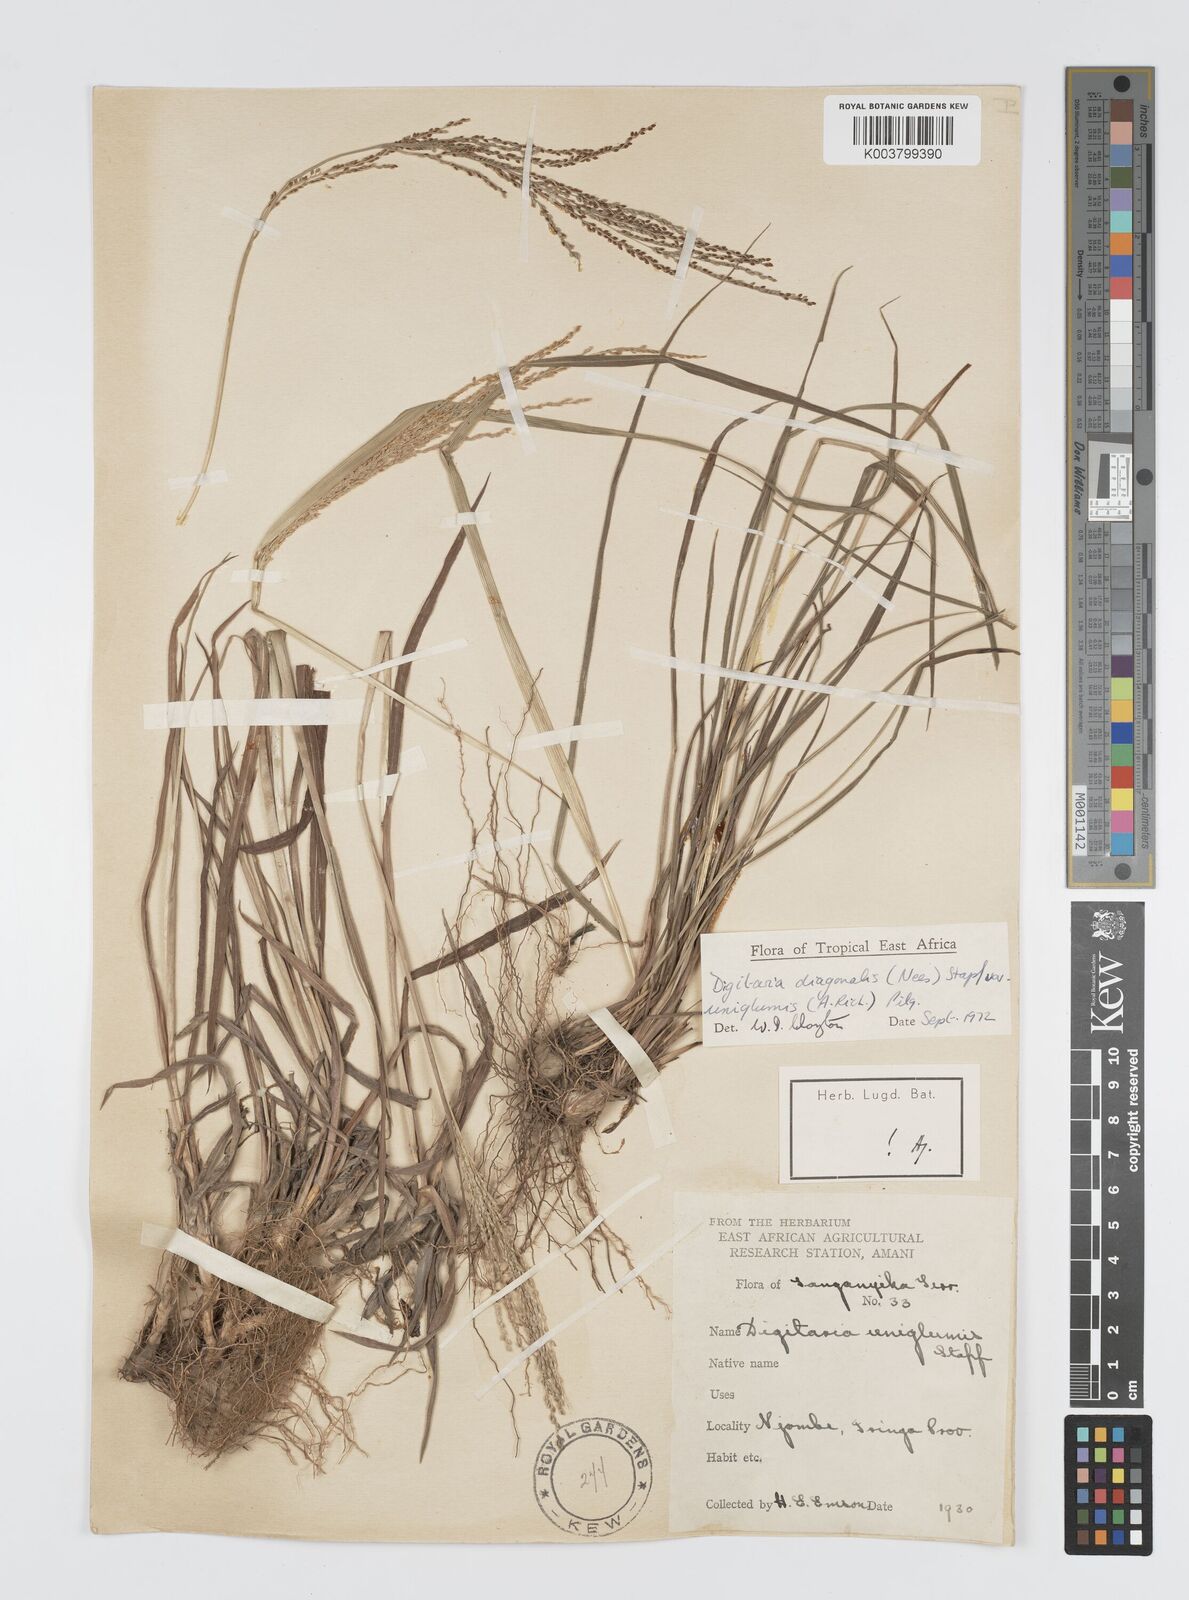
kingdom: Plantae
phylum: Tracheophyta
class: Liliopsida
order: Poales
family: Poaceae
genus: Digitaria
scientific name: Digitaria diagonalis
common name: Brown-seed finger grass
